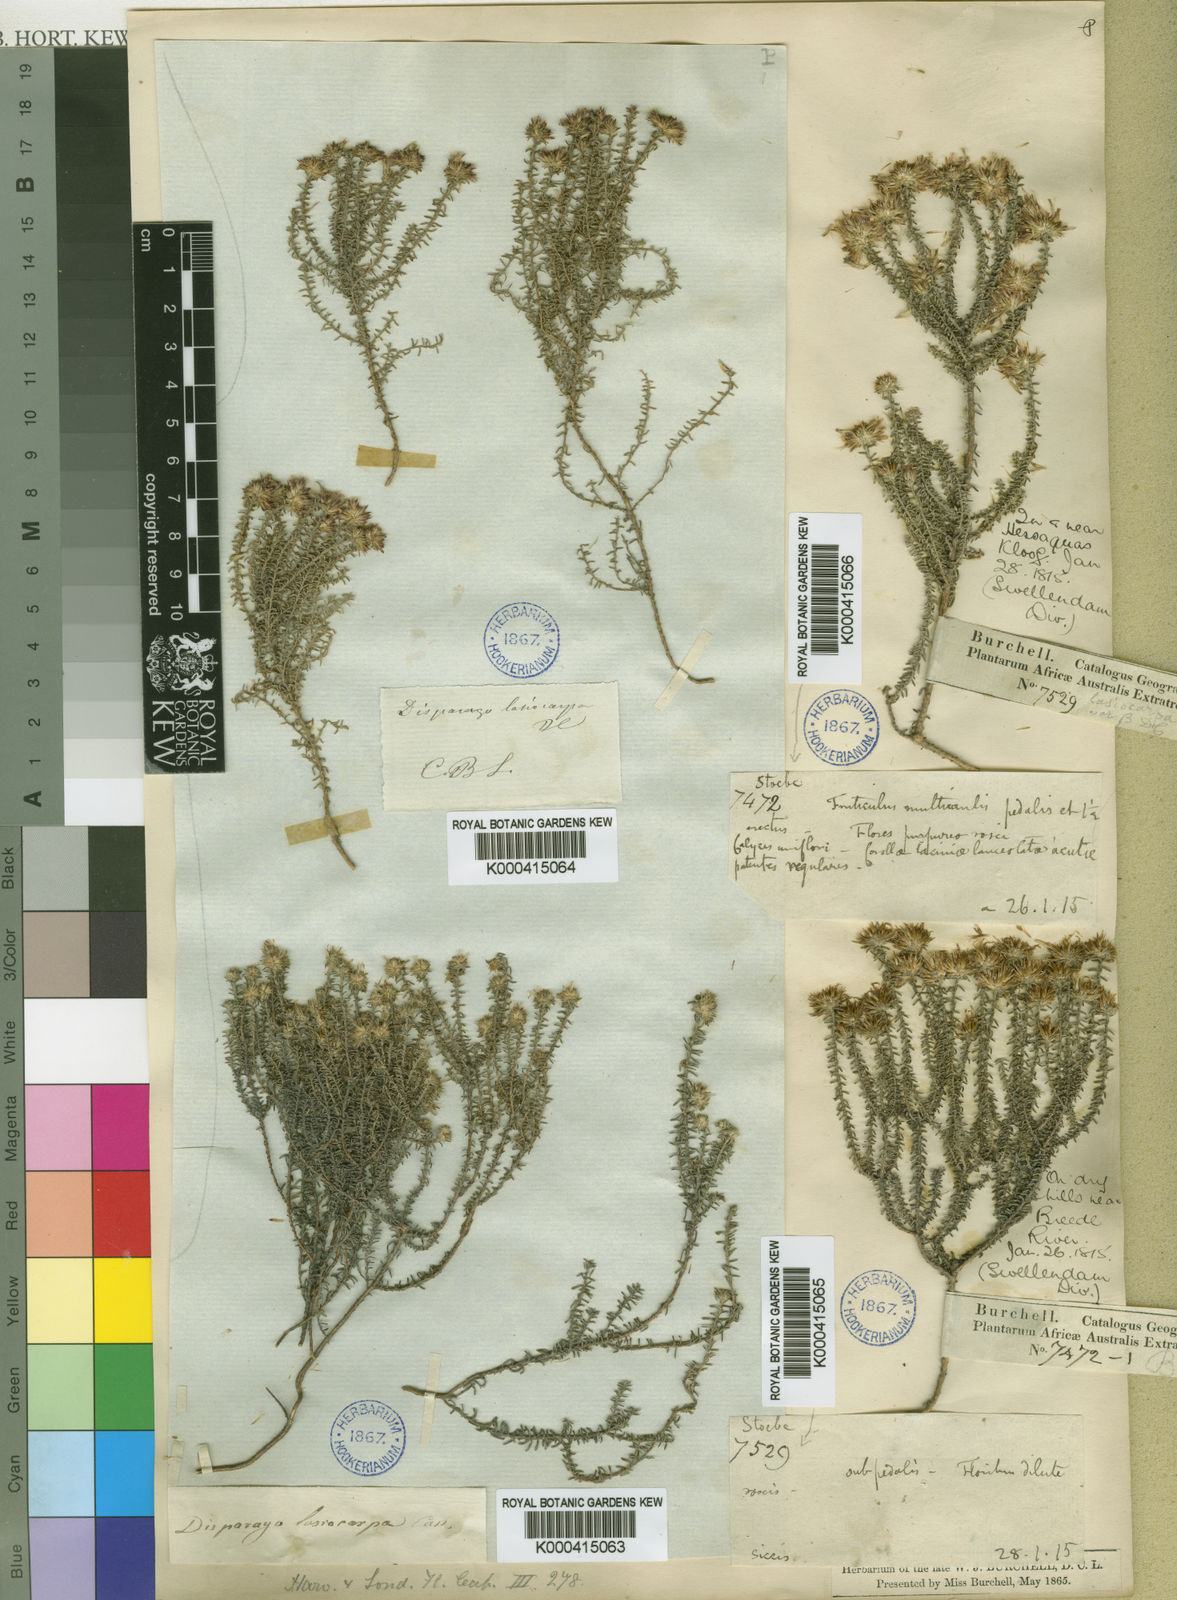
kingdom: Plantae
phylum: Tracheophyta
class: Magnoliopsida
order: Asterales
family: Asteraceae
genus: Disparago
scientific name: Disparago ericoides
